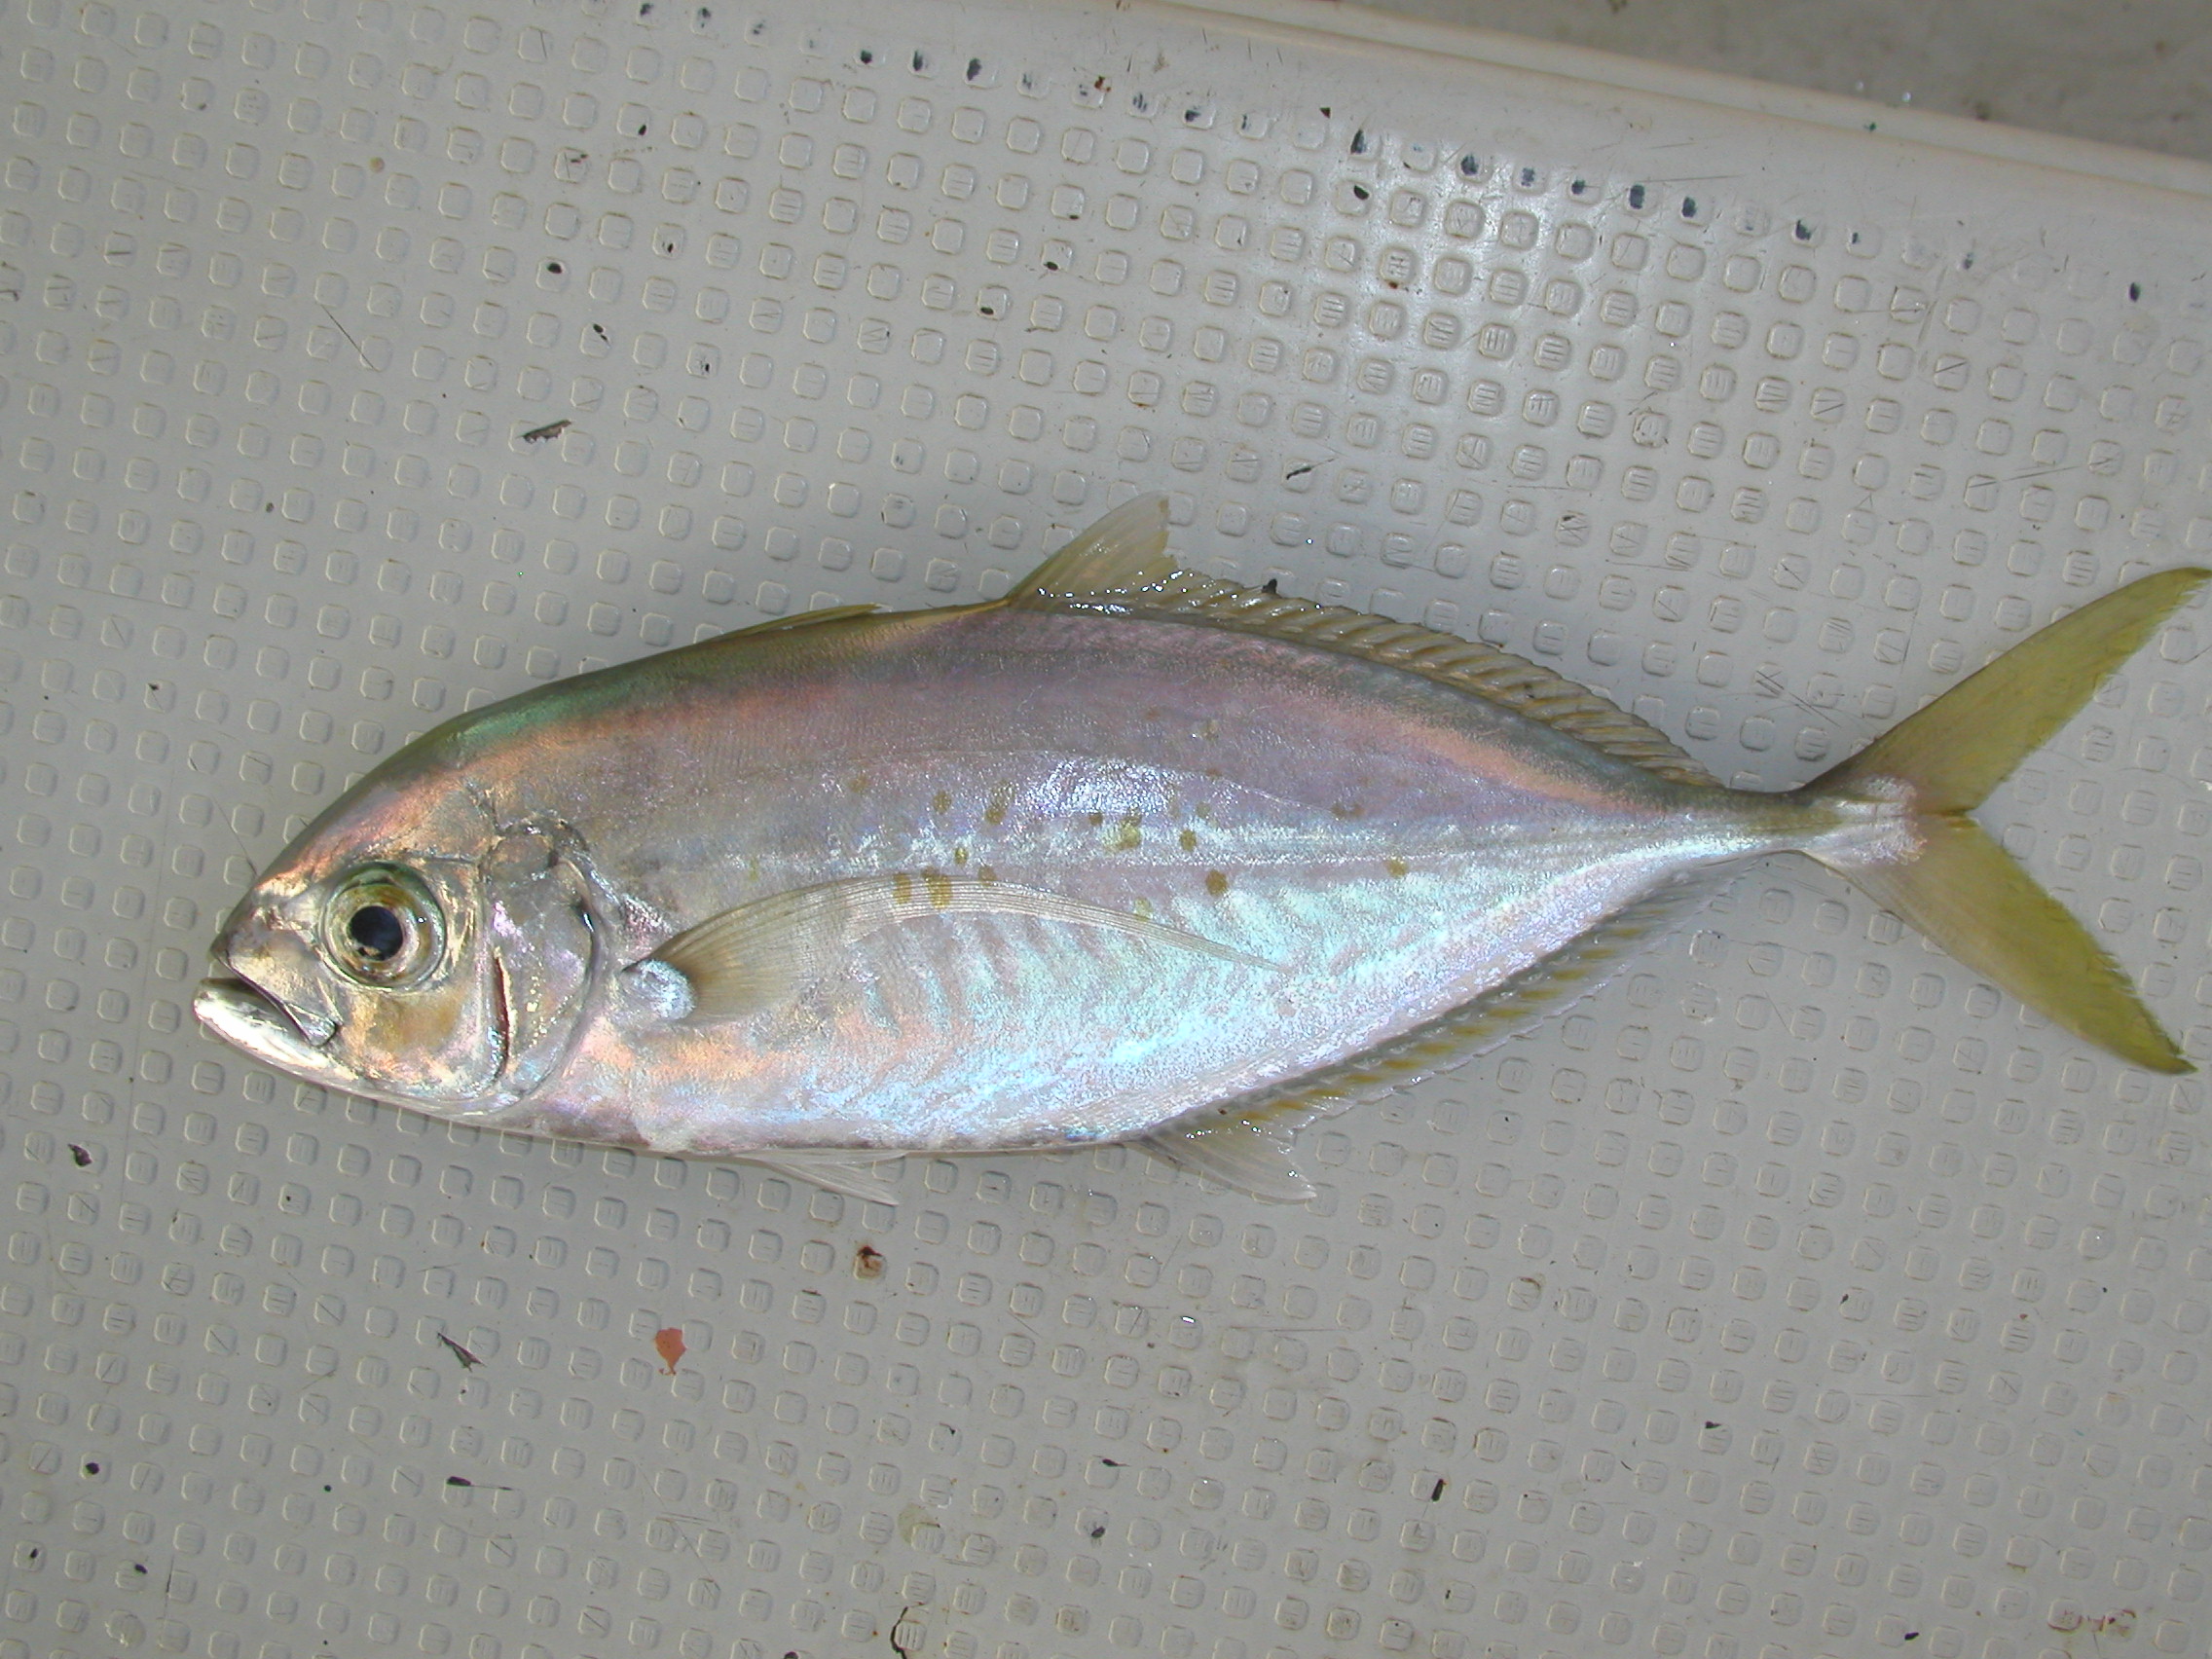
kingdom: Animalia
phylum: Chordata
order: Perciformes
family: Carangidae
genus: Carangoides
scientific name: Carangoides plagiotaenia
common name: Barcheek trevally
